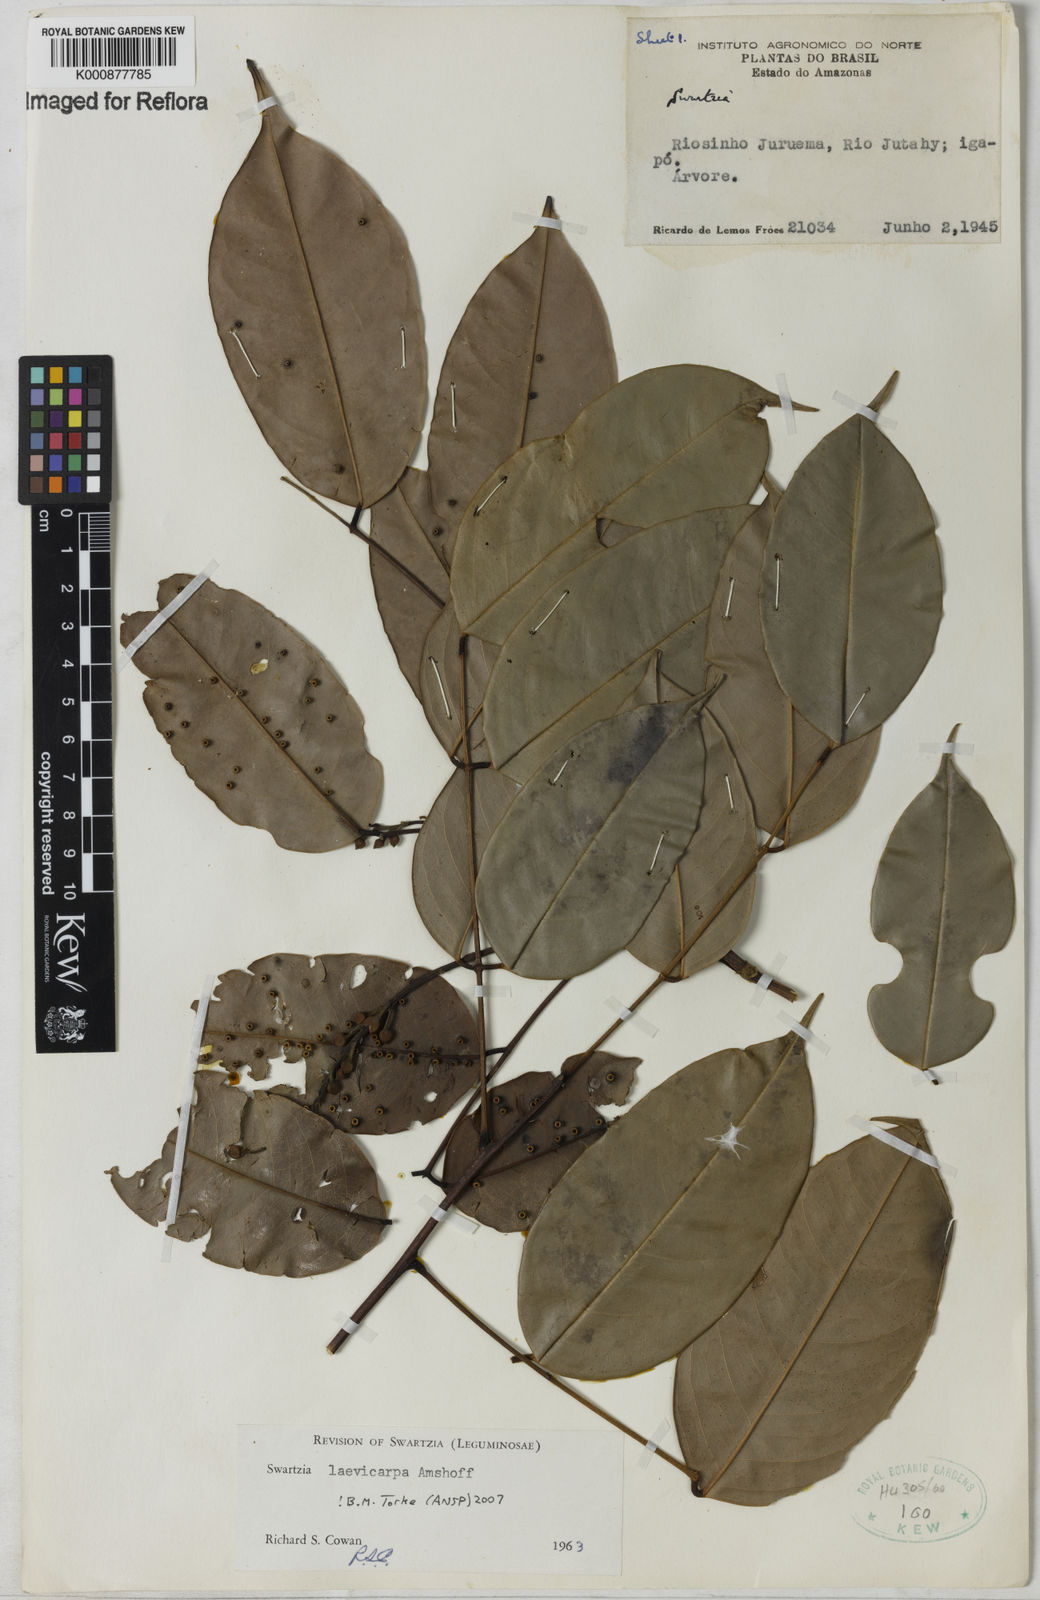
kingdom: Plantae
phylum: Tracheophyta
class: Magnoliopsida
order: Fabales
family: Fabaceae
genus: Swartzia
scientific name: Swartzia laevicarpa
